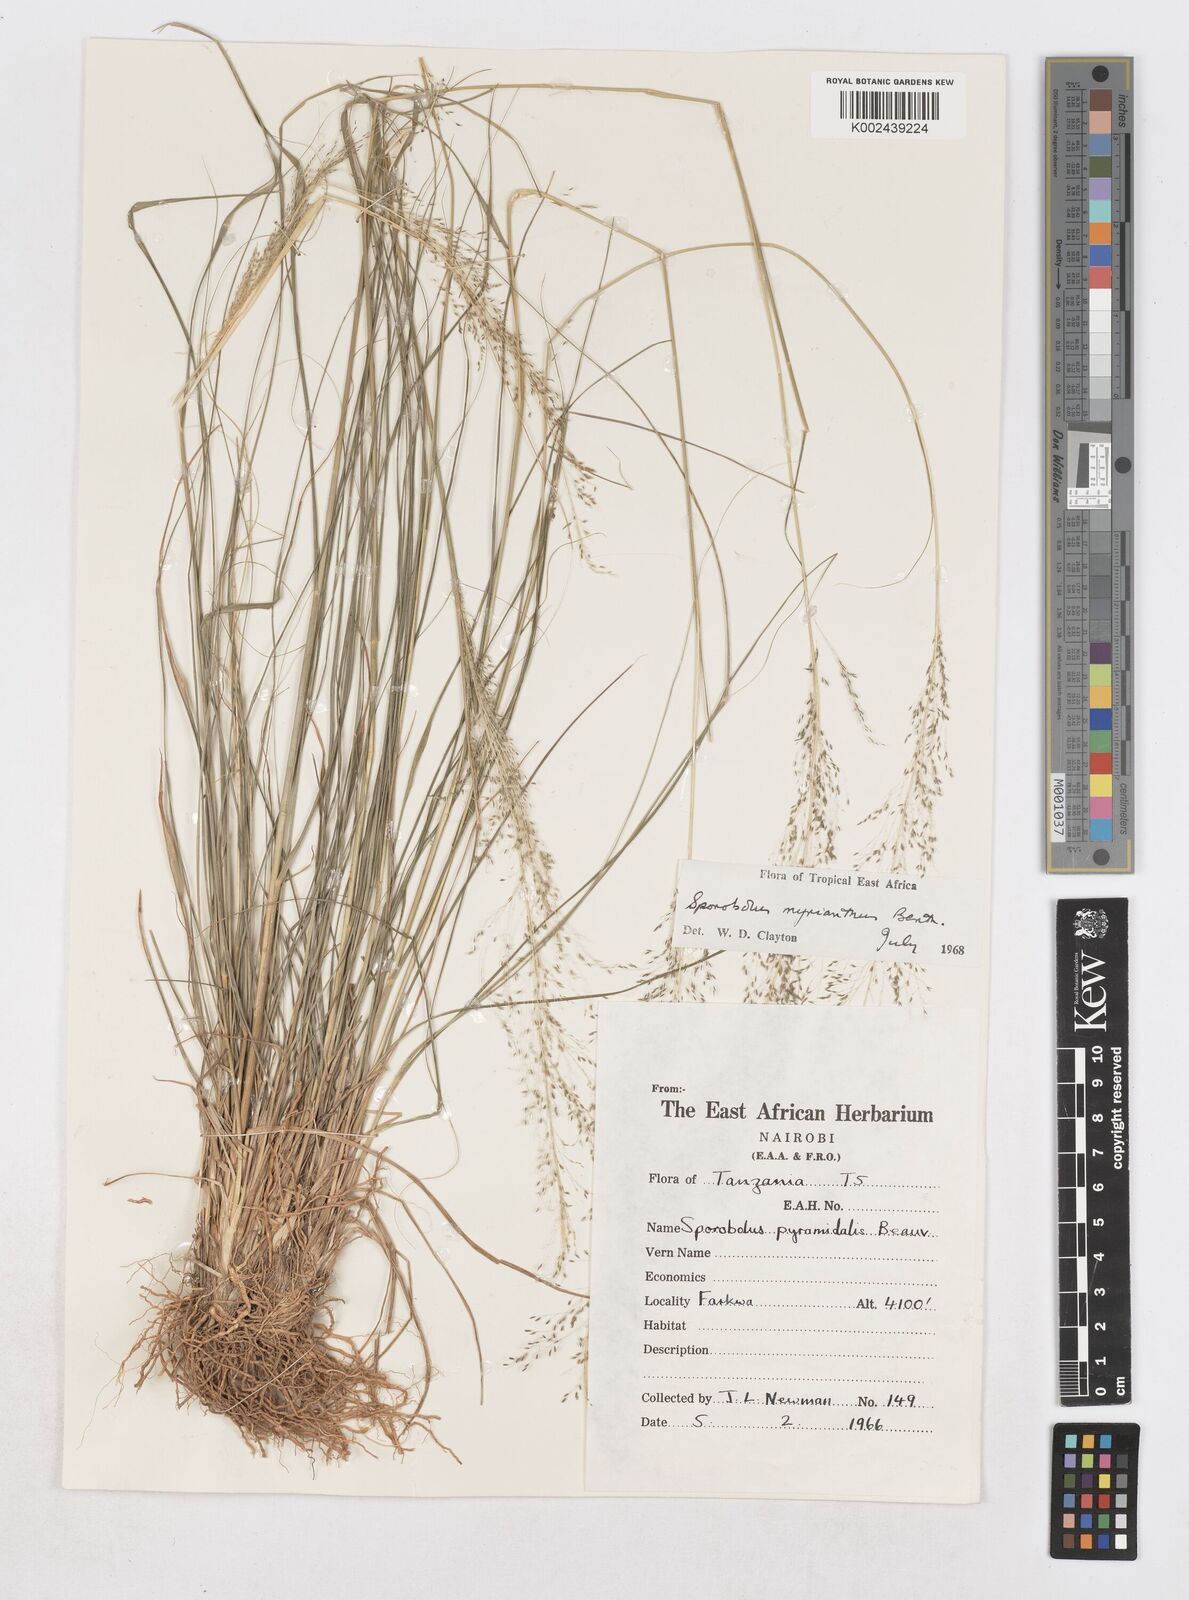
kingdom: Plantae
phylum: Tracheophyta
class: Liliopsida
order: Poales
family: Poaceae
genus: Sporobolus
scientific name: Sporobolus myrianthus
